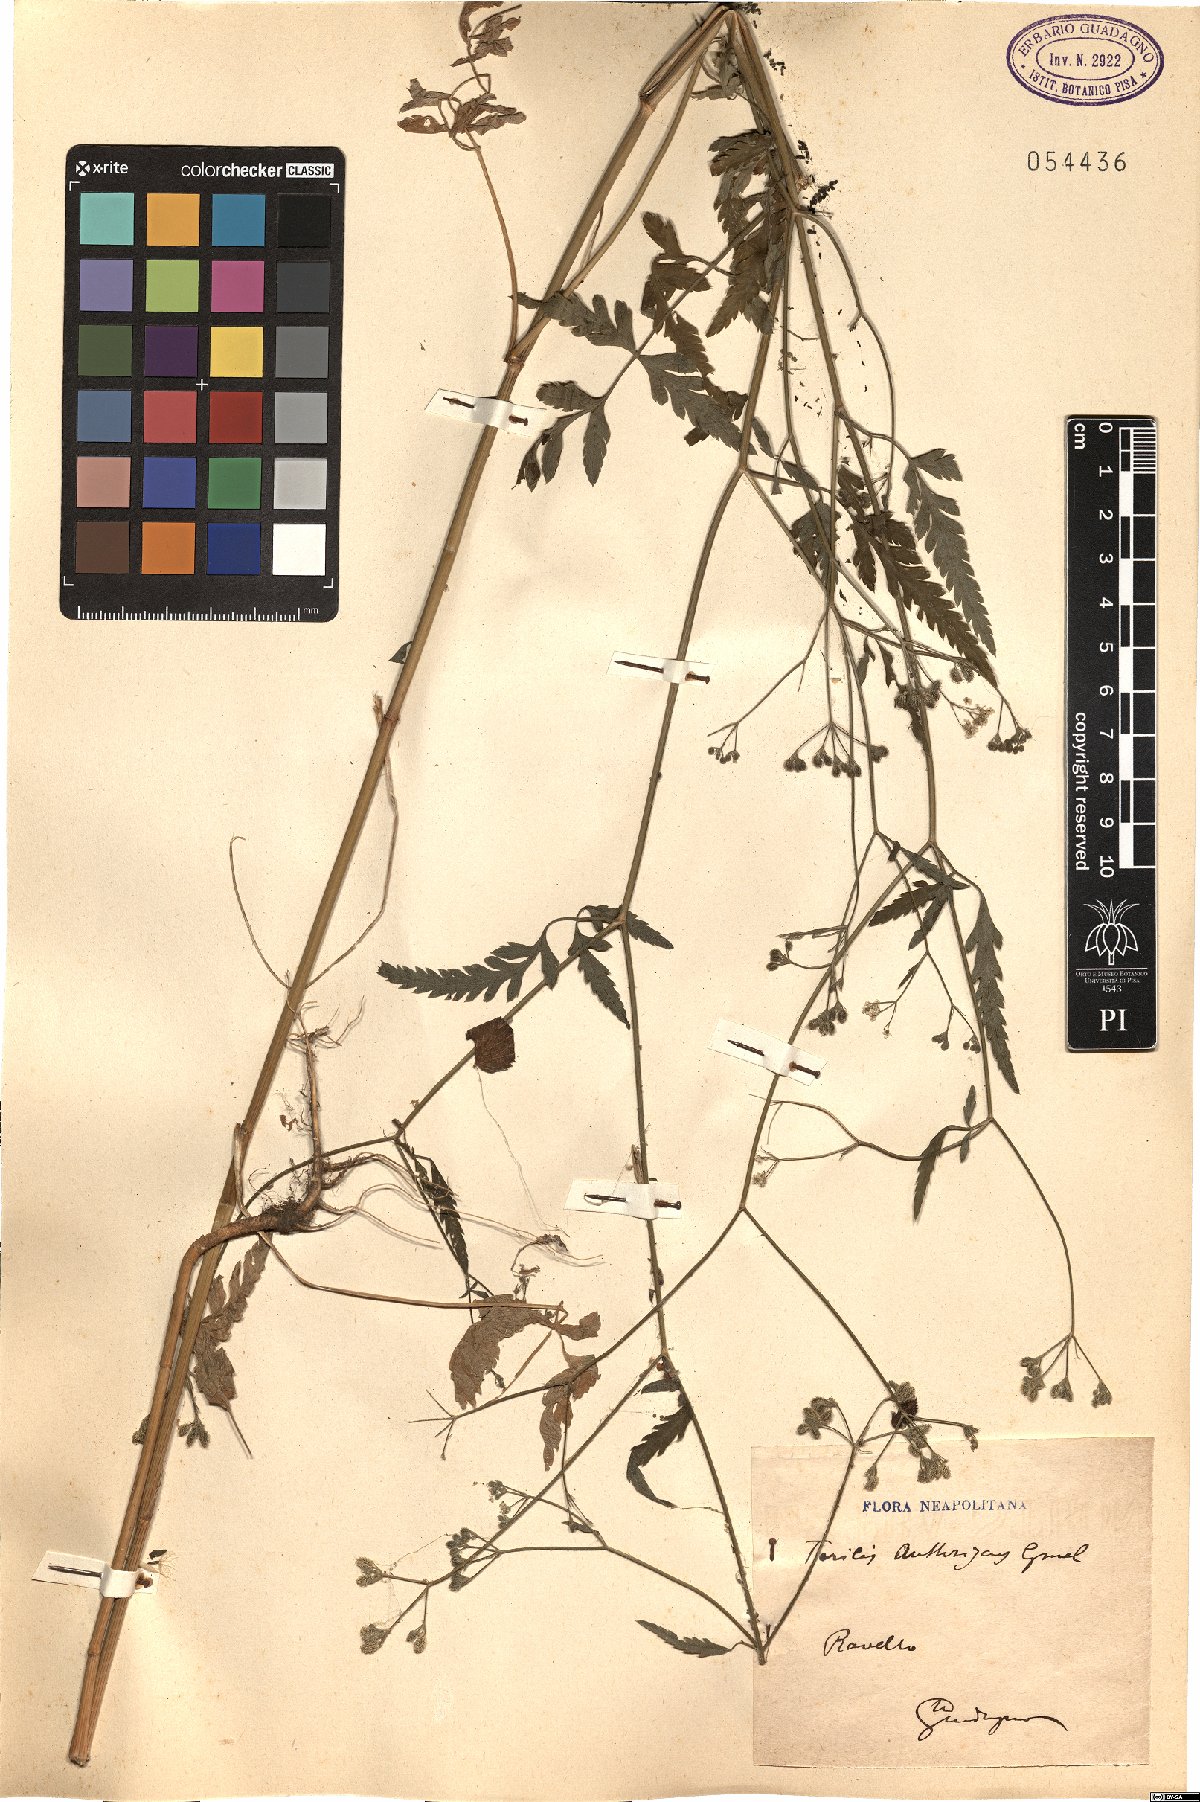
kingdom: Plantae
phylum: Tracheophyta
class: Magnoliopsida
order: Apiales
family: Apiaceae
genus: Torilis
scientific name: Torilis japonica
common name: Upright hedge-parsley
